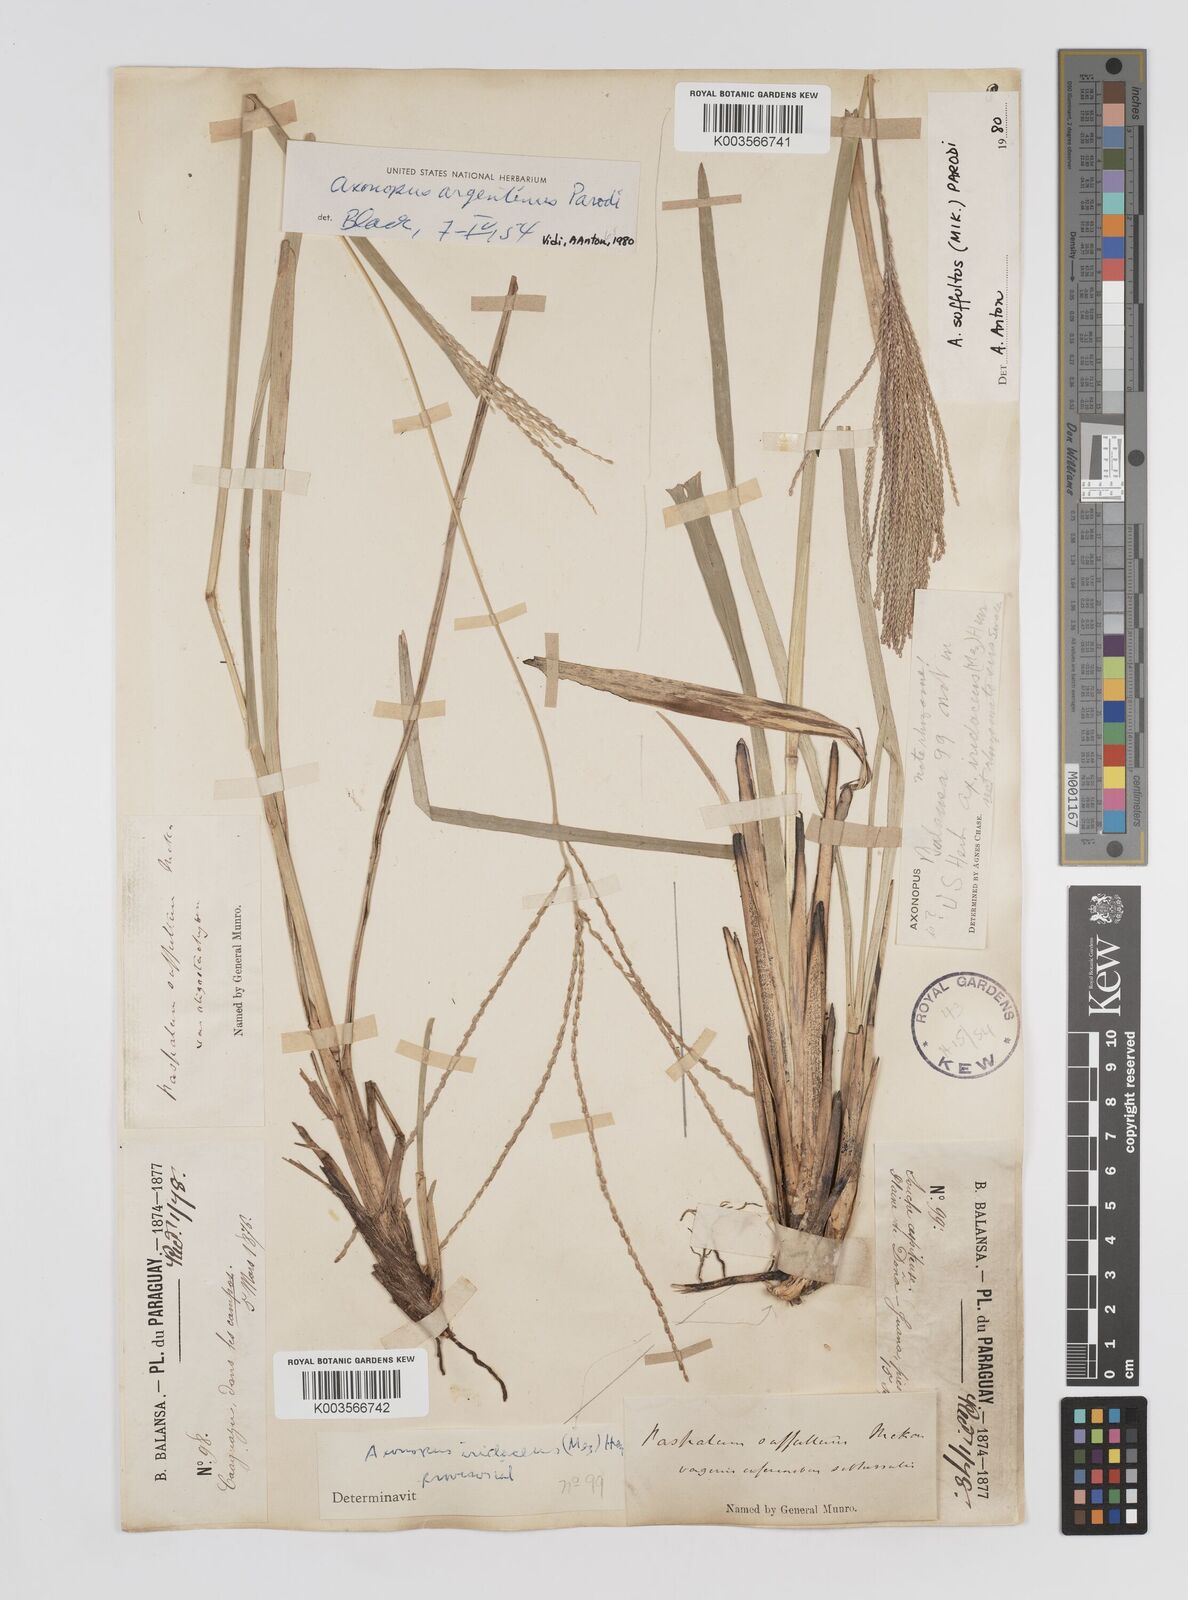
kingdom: Plantae
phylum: Tracheophyta
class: Liliopsida
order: Poales
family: Poaceae
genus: Axonopus
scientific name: Axonopus argentinus
